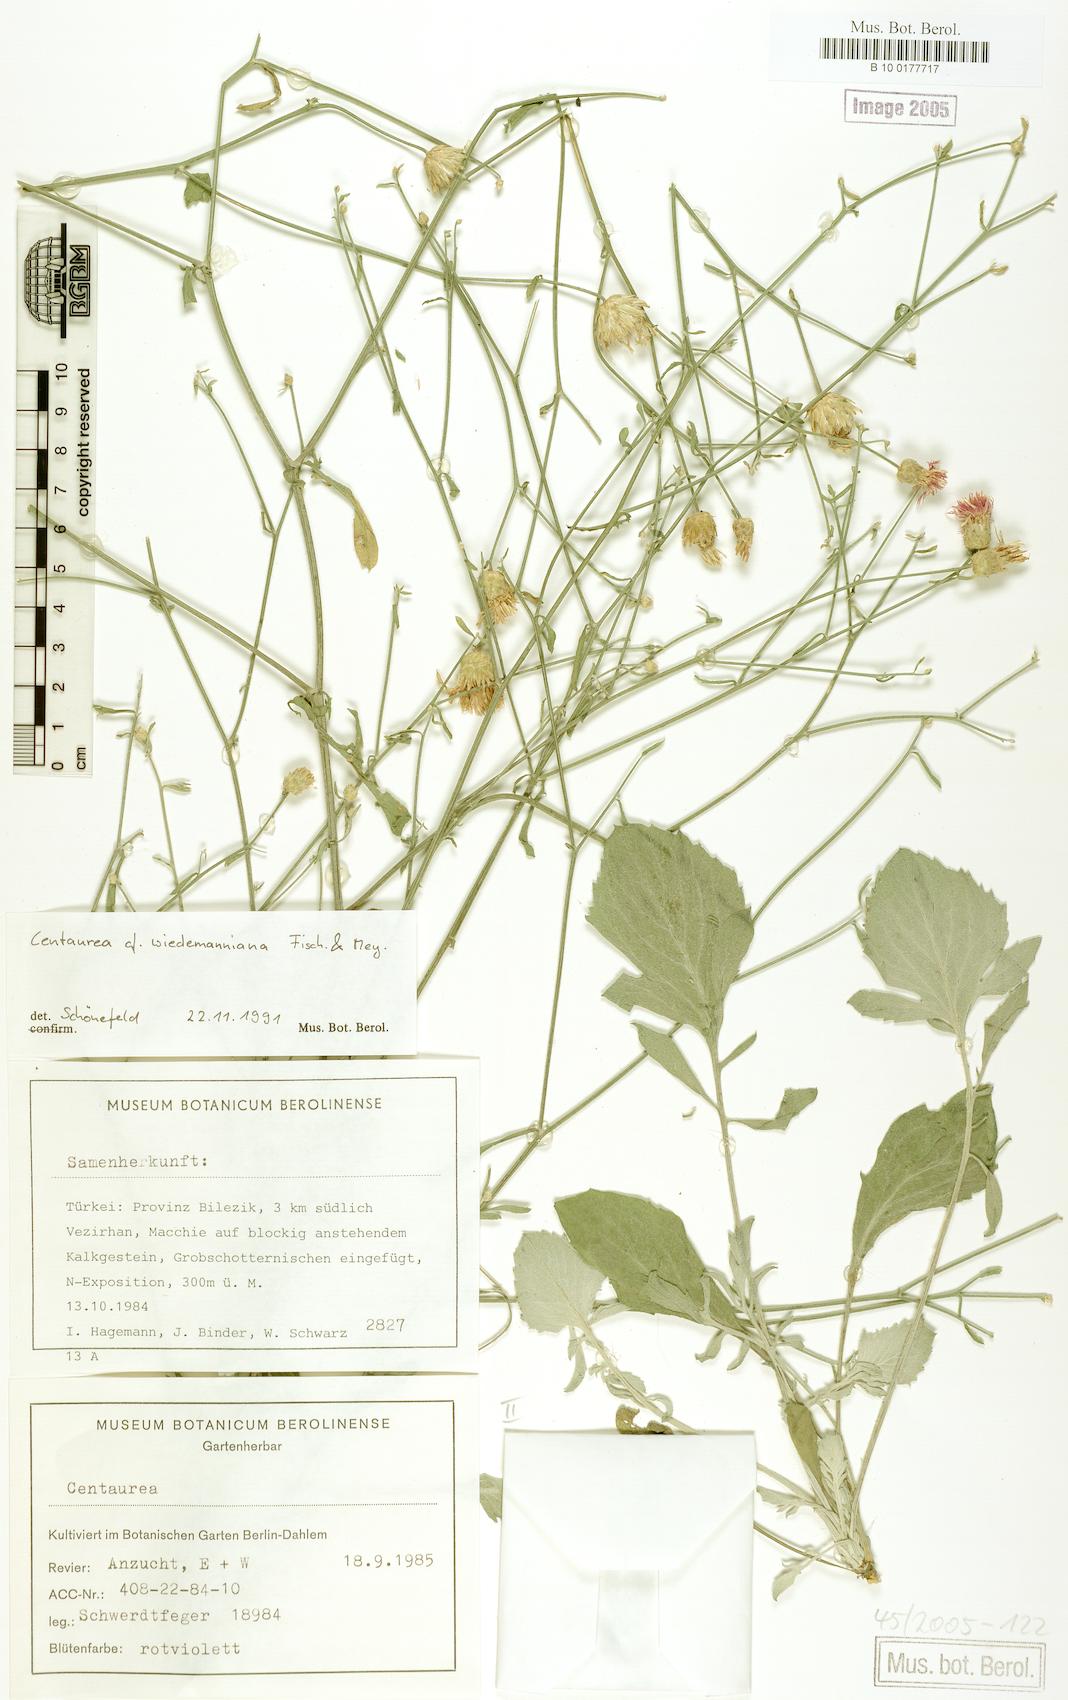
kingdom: Plantae
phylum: Tracheophyta
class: Magnoliopsida
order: Asterales
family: Asteraceae
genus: Centaurea
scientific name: Centaurea wiedemanniana
